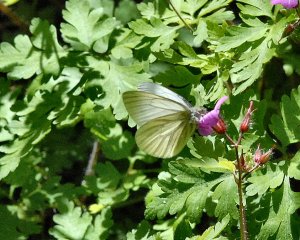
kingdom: Animalia
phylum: Arthropoda
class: Insecta
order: Lepidoptera
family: Pieridae
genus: Pieris
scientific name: Pieris marginalis
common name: Margined White
